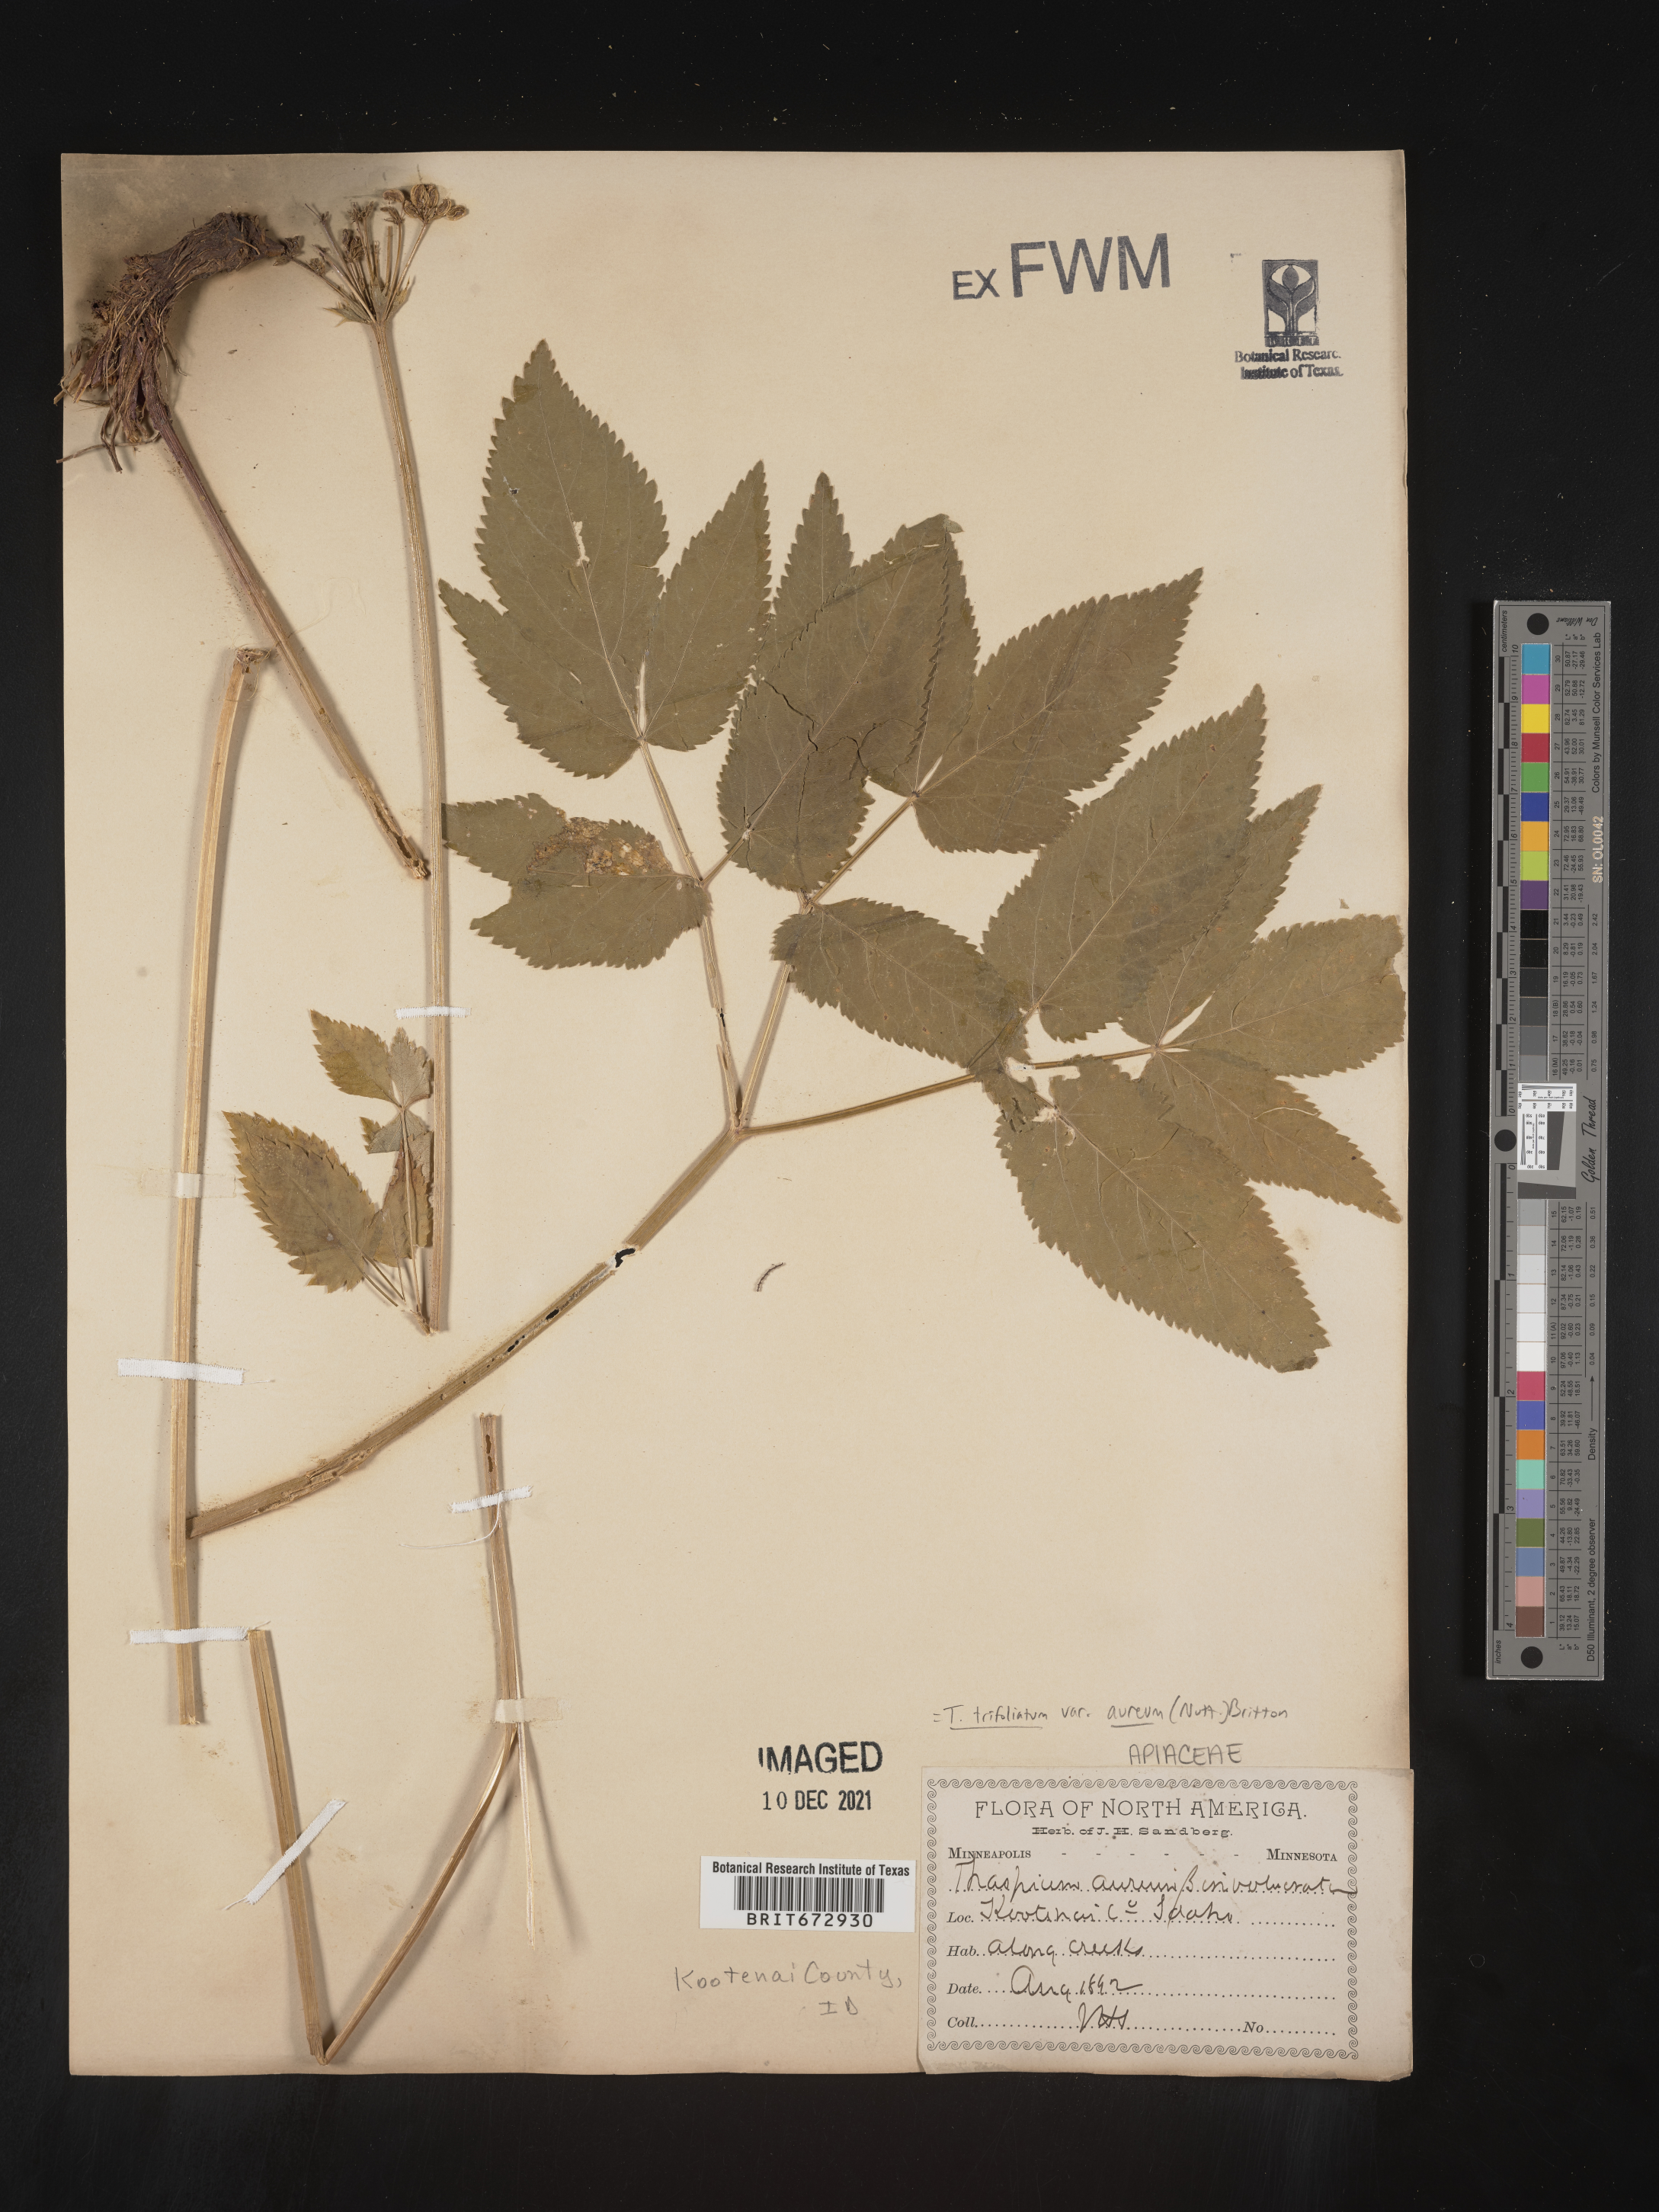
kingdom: Plantae
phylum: Tracheophyta
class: Magnoliopsida
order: Apiales
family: Apiaceae
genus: Thaspium
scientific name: Thaspium
